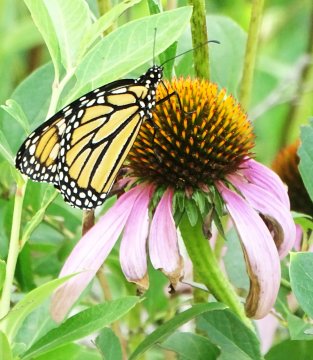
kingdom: Animalia
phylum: Arthropoda
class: Insecta
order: Lepidoptera
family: Nymphalidae
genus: Danaus
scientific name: Danaus plexippus
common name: Monarch
